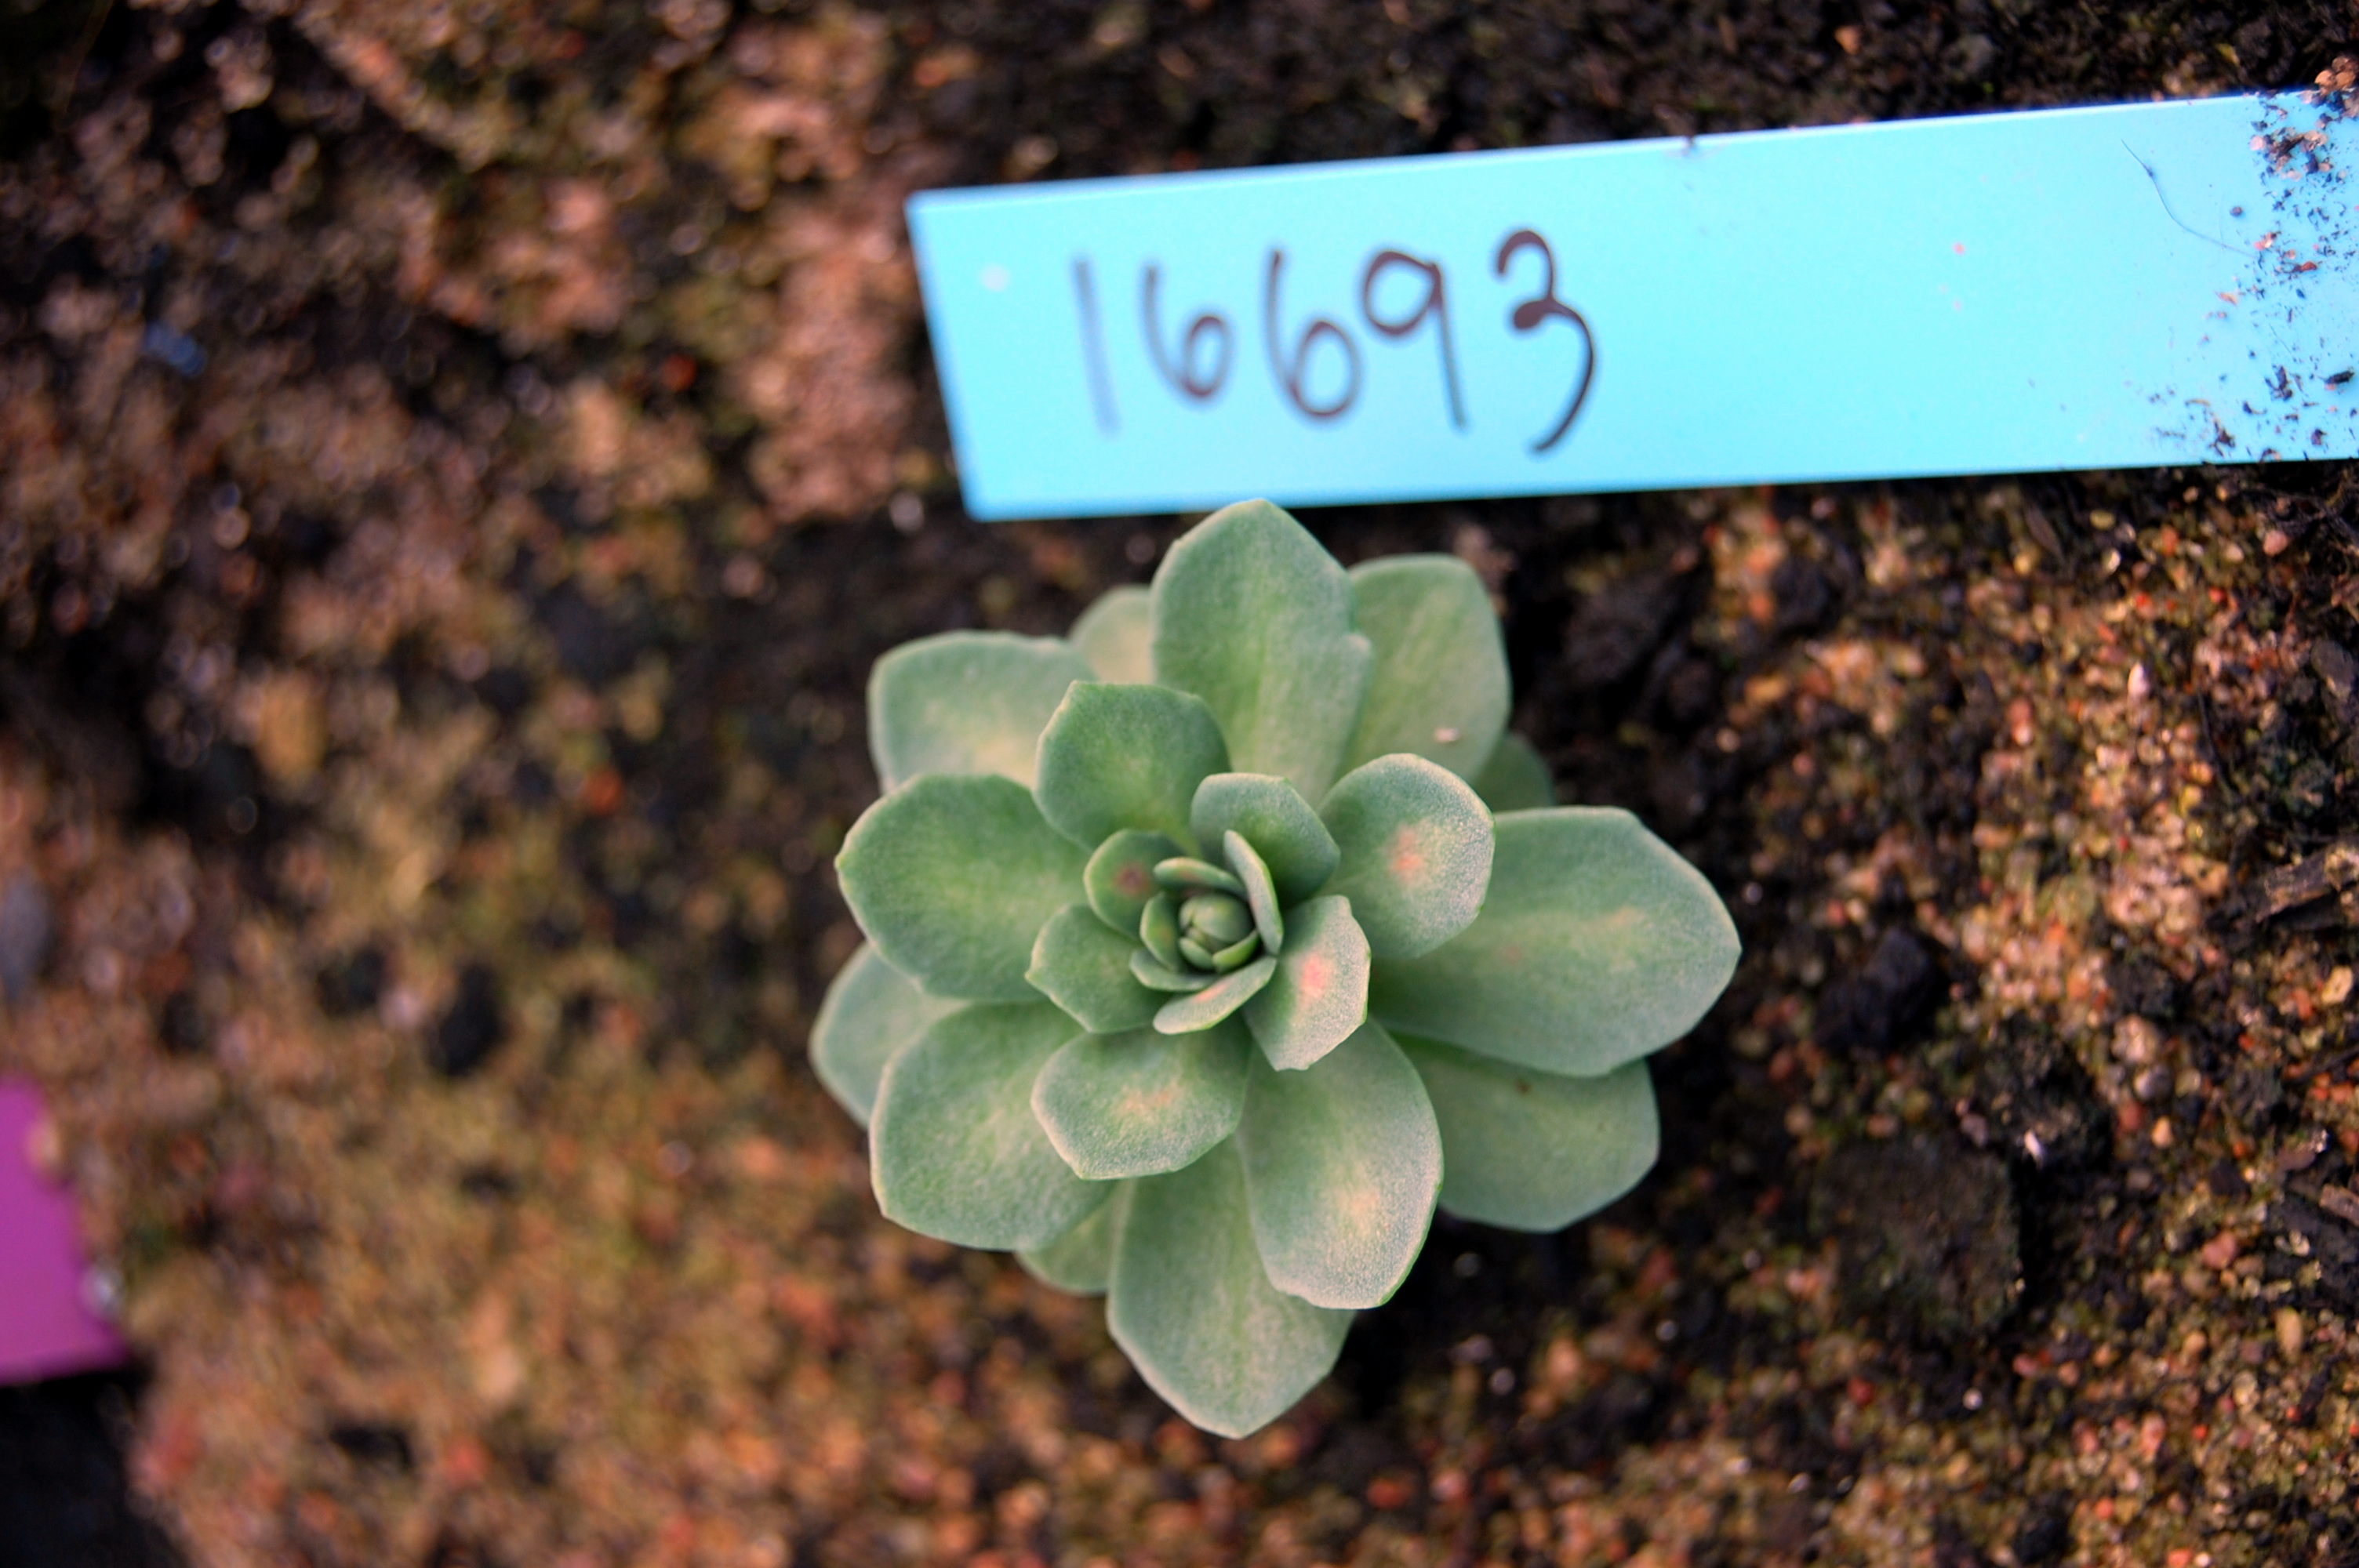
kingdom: Plantae
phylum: Tracheophyta
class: Magnoliopsida
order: Saxifragales
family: Crassulaceae
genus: Rhodiola
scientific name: Rhodiola rosea
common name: Roseroot
